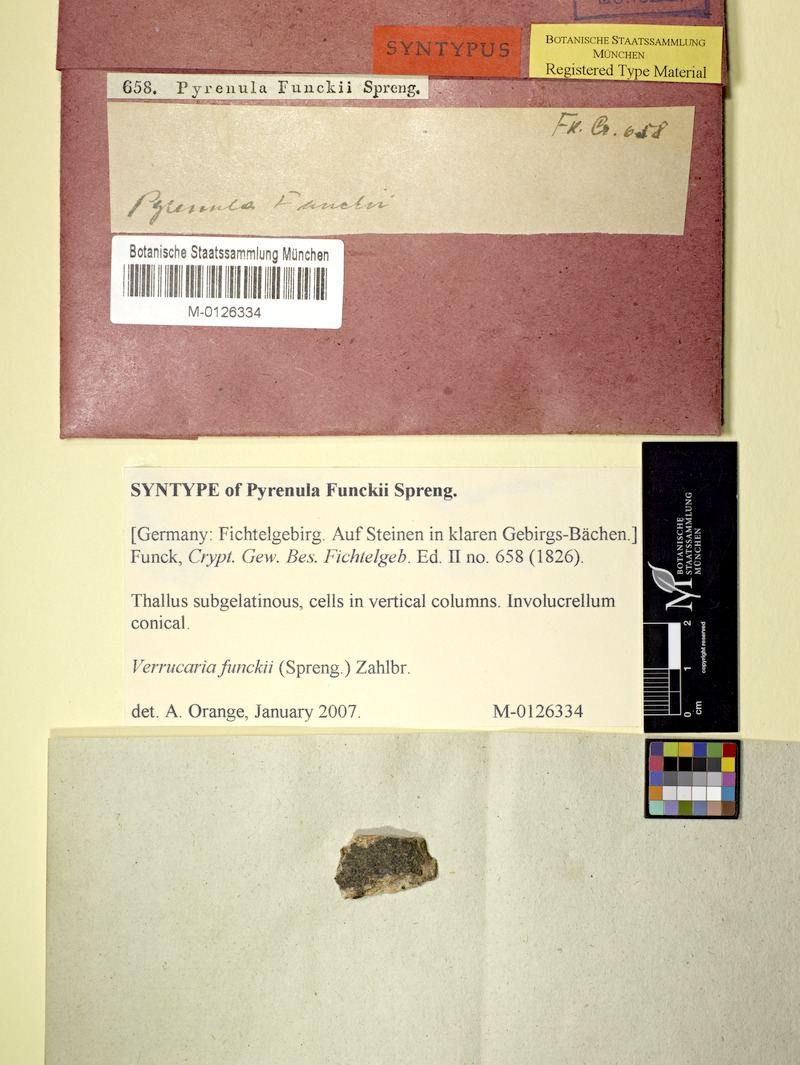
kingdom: Fungi
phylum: Ascomycota
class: Eurotiomycetes
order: Verrucariales
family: Verrucariaceae
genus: Verrucaria
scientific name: Verrucaria funckii
